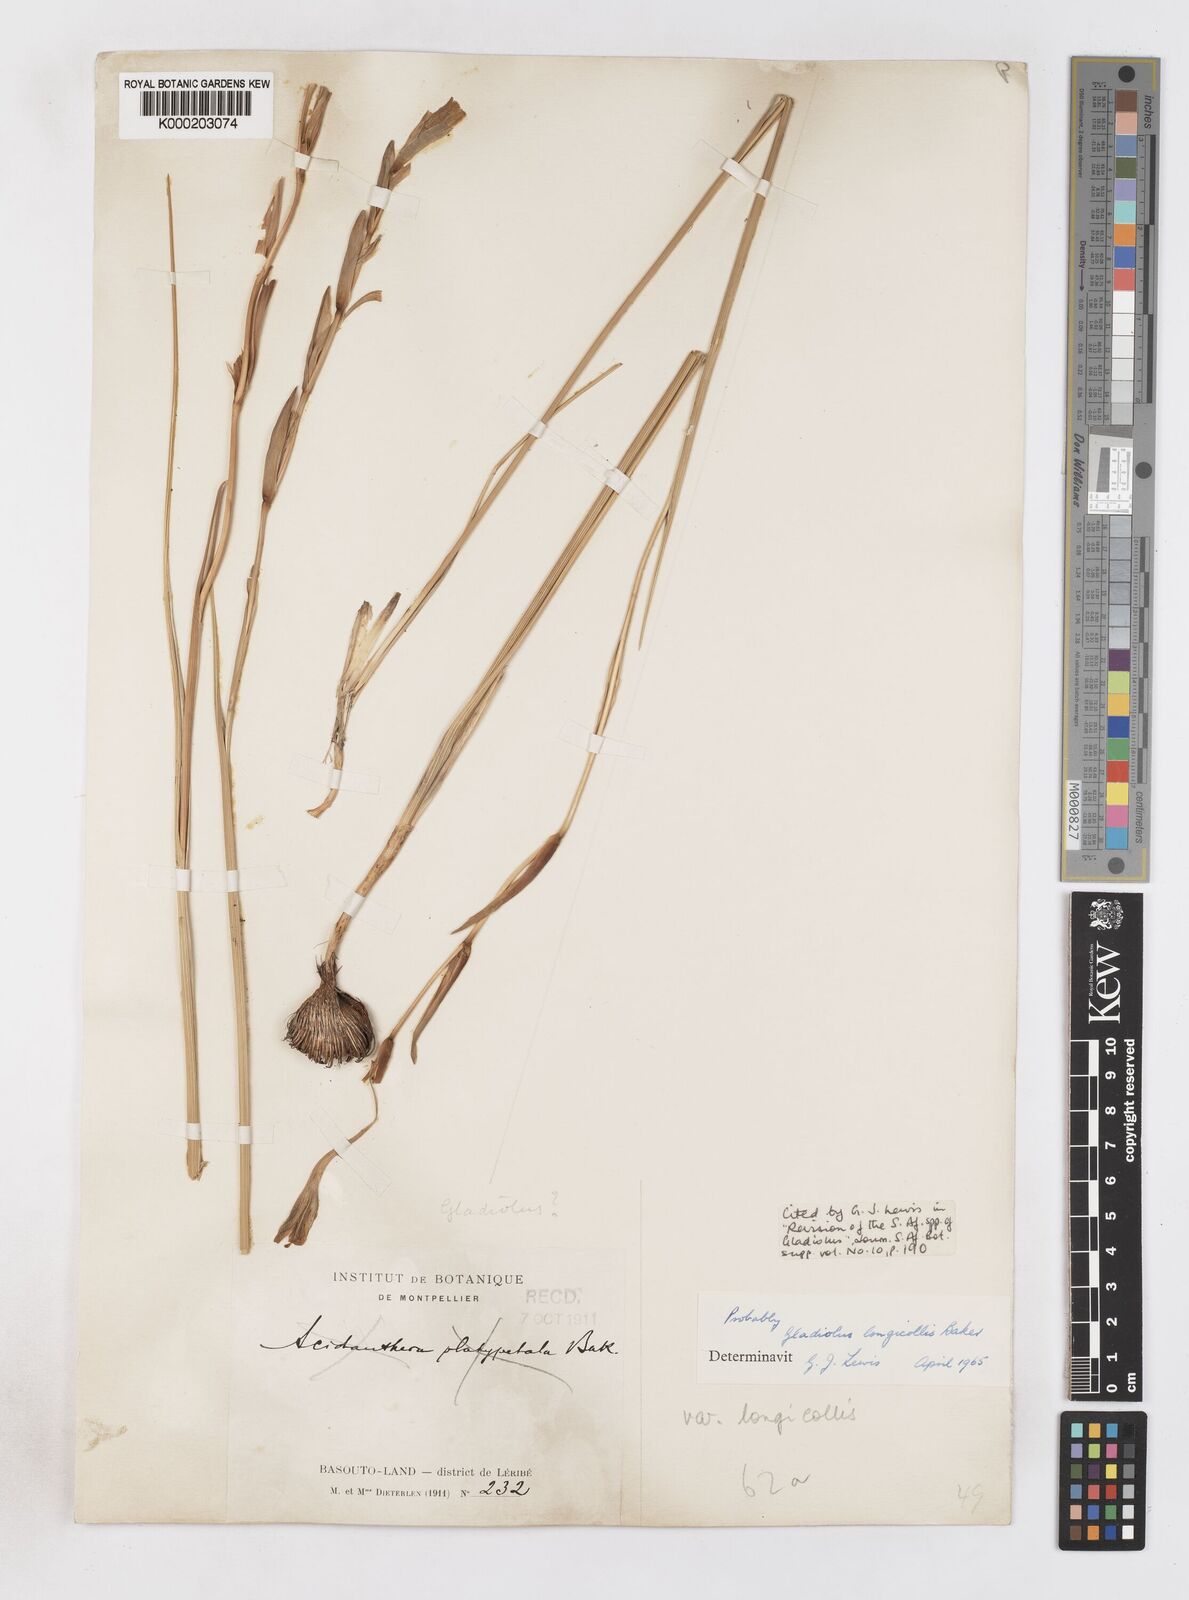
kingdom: Plantae
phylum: Tracheophyta
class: Liliopsida
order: Asparagales
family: Iridaceae
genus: Gladiolus
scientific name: Gladiolus longicollis
